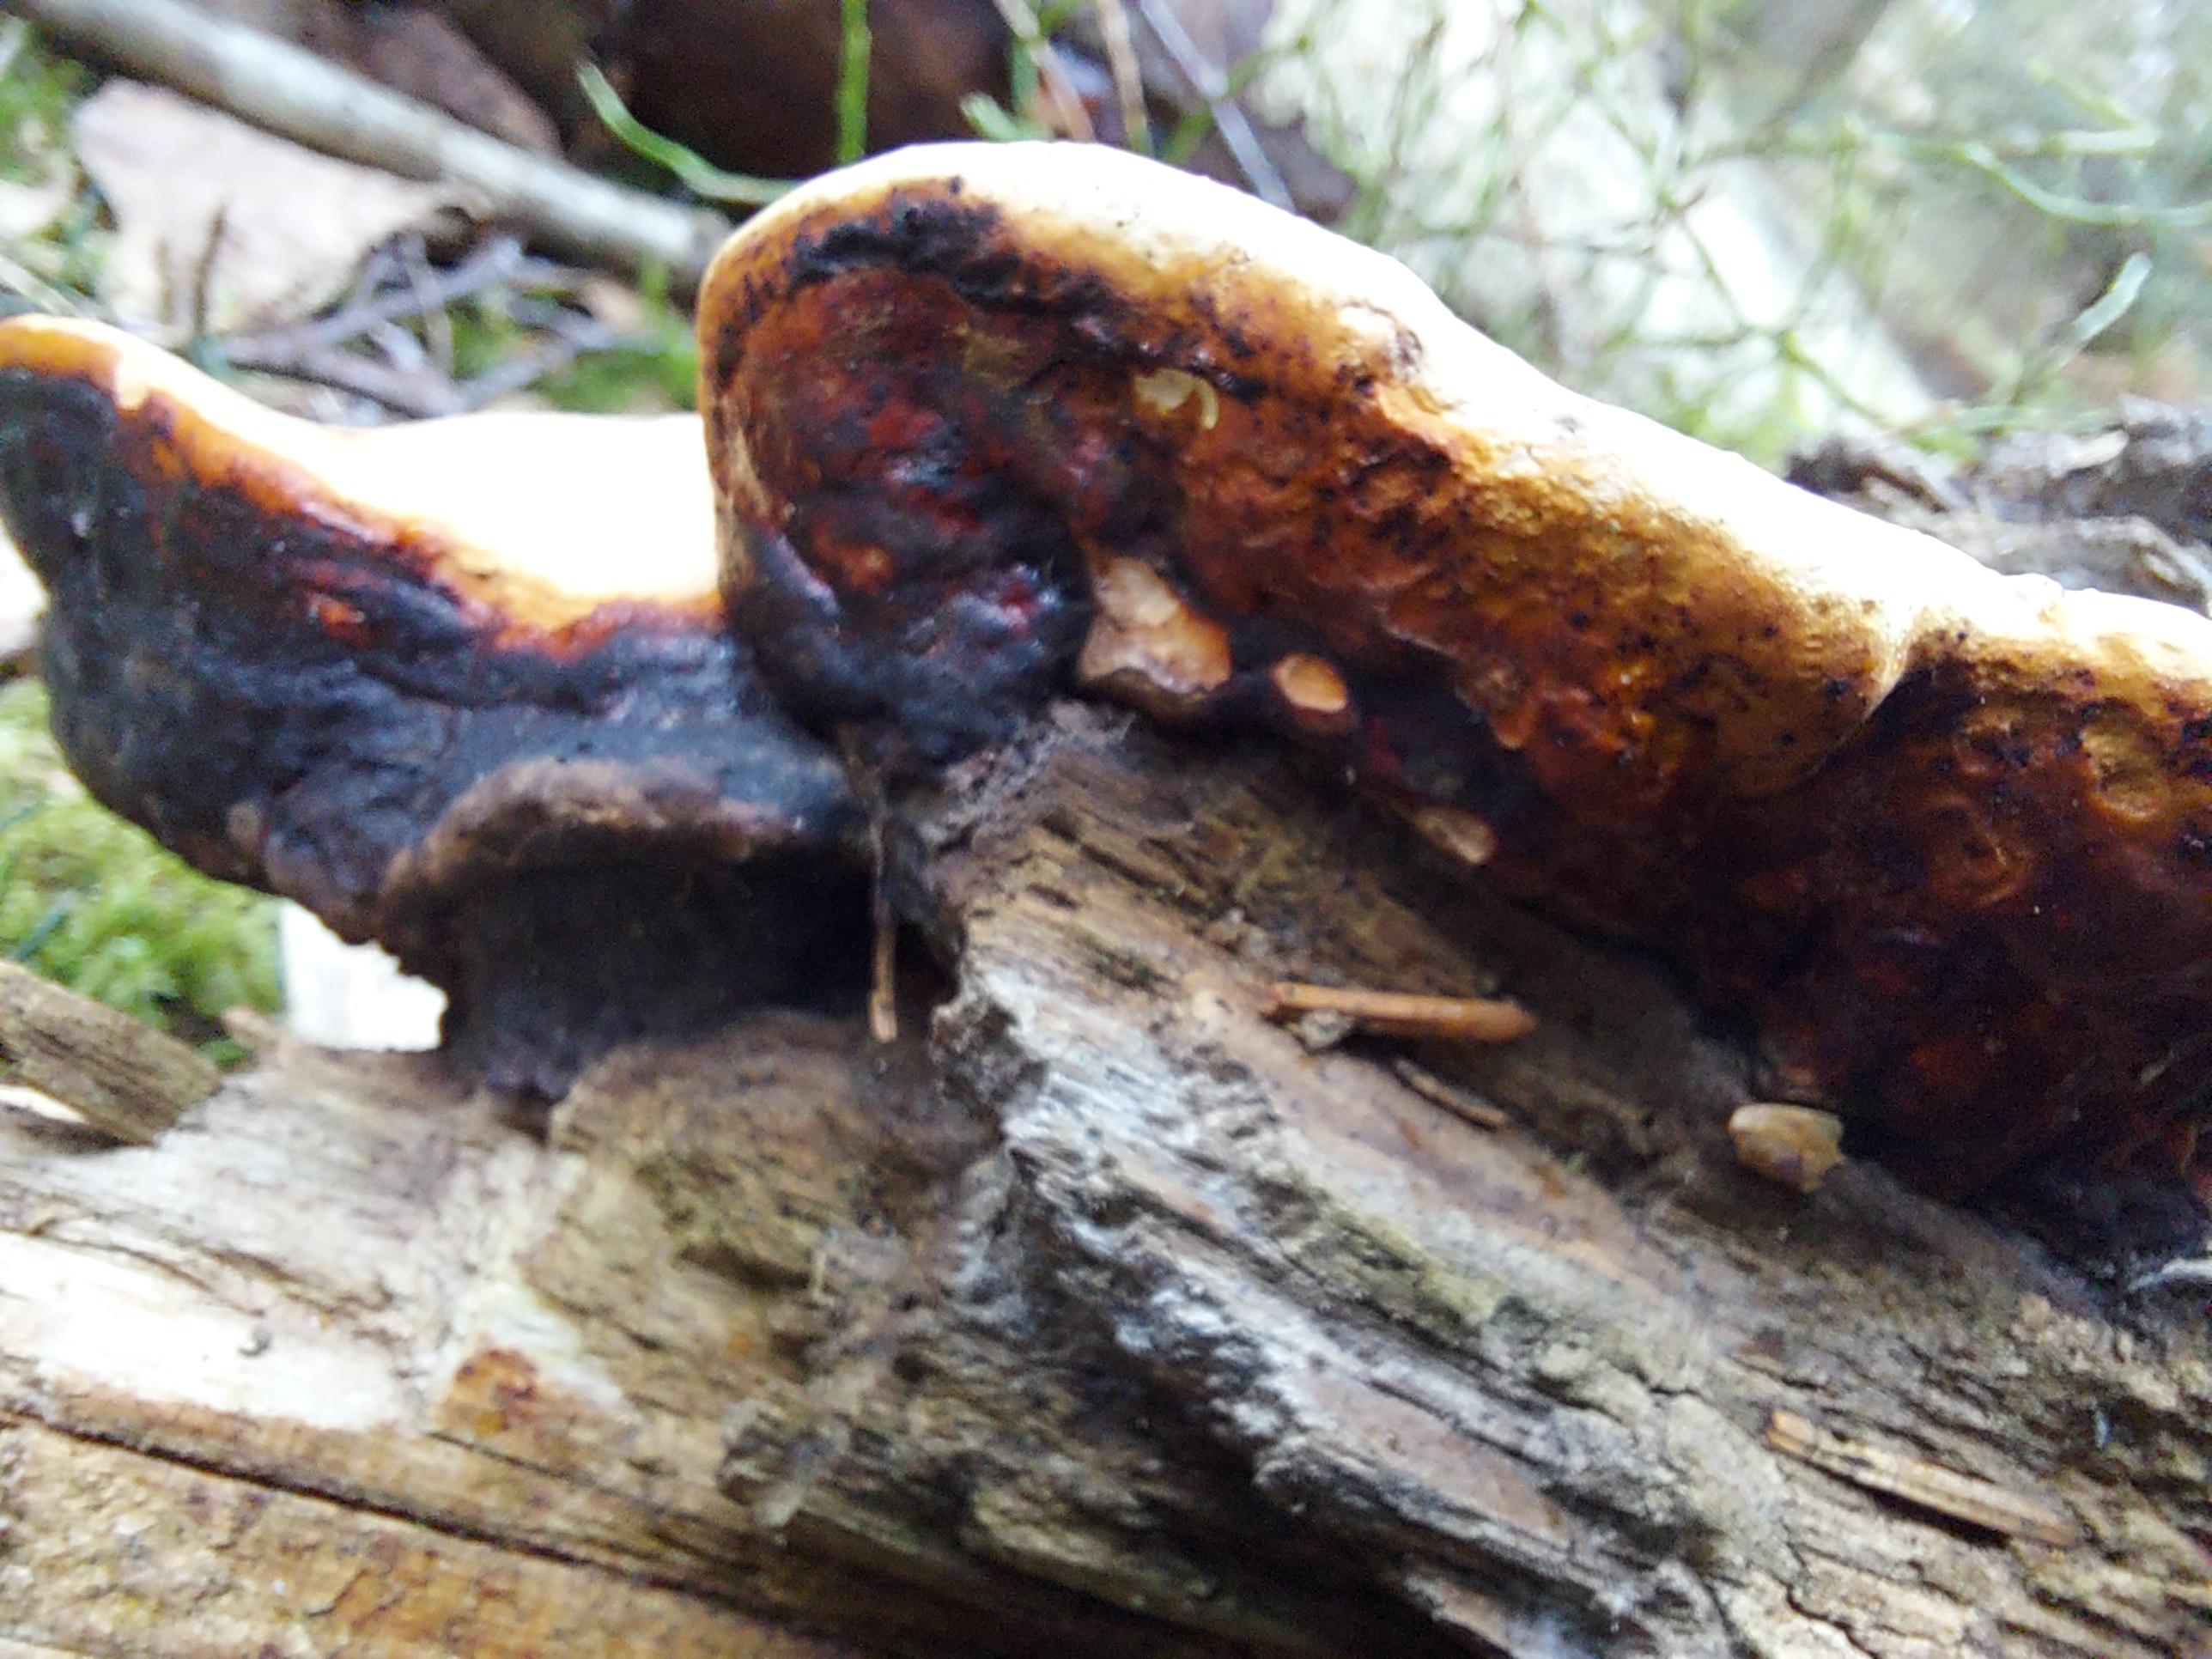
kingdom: Fungi
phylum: Basidiomycota
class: Agaricomycetes
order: Polyporales
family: Fomitopsidaceae
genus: Fomitopsis
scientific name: Fomitopsis pinicola
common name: randbæltet hovporesvamp
